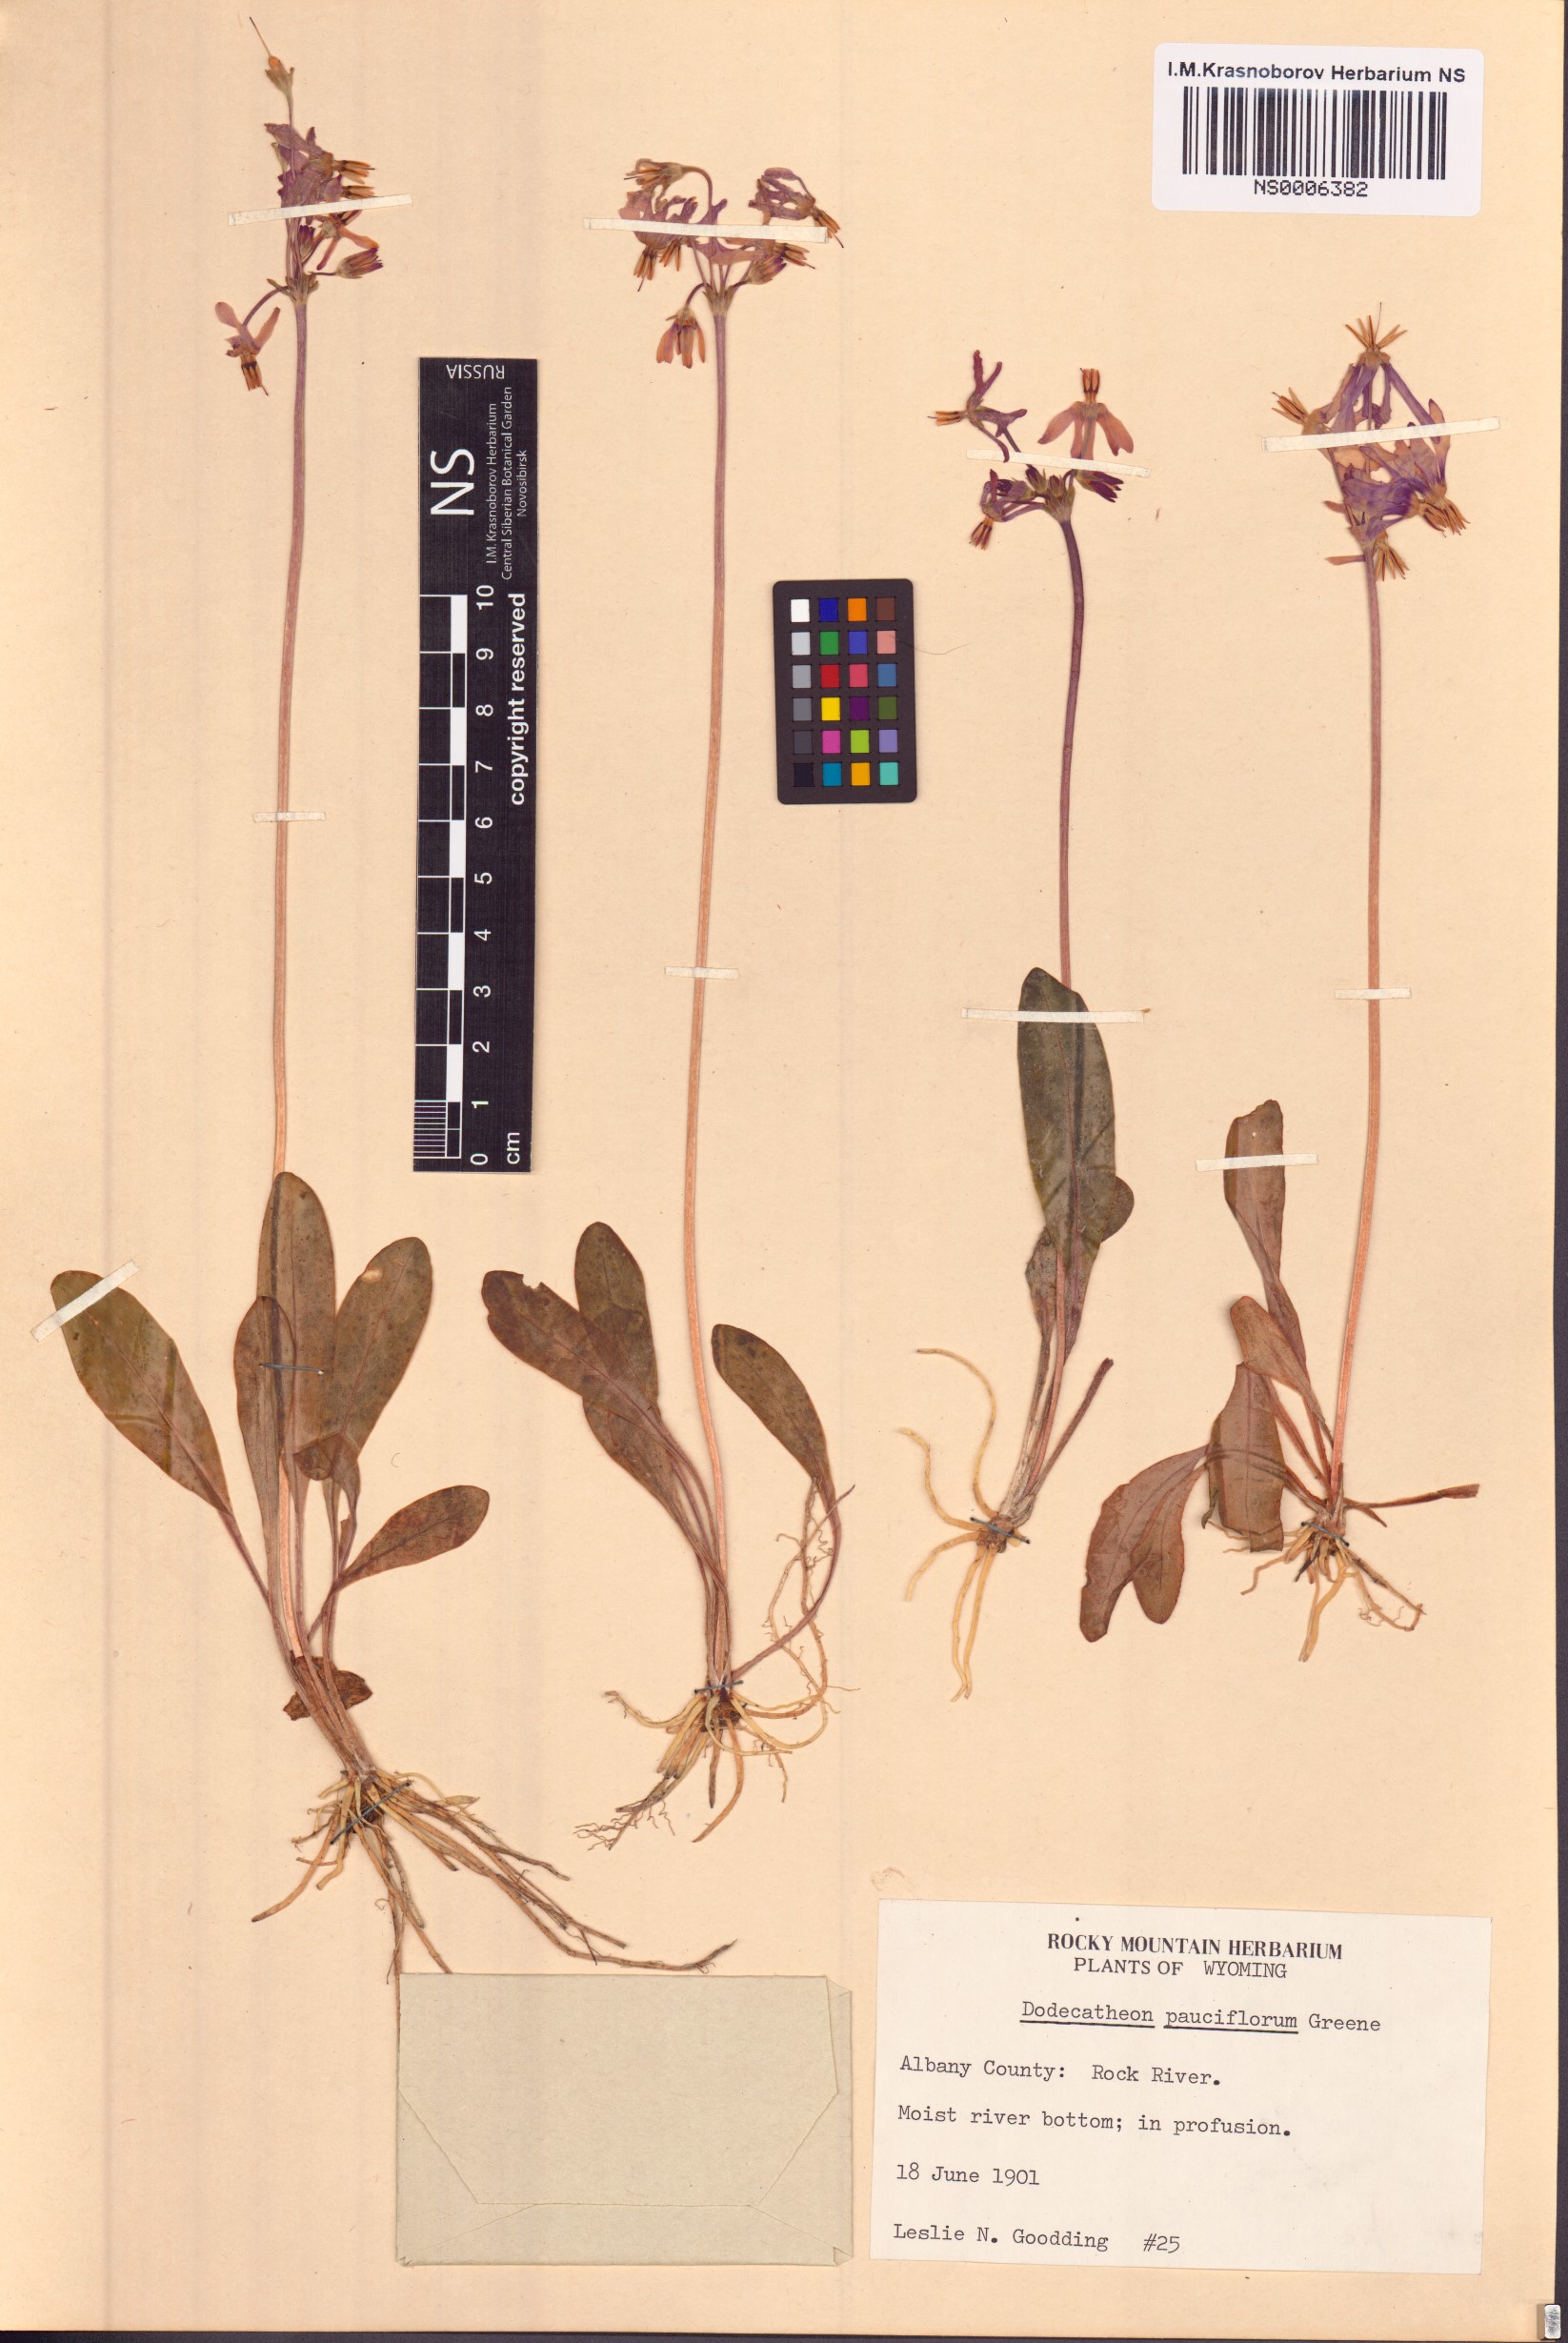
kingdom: Plantae
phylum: Tracheophyta
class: Magnoliopsida
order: Ericales
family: Primulaceae
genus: Dodecatheon
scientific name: Dodecatheon pulchellum
